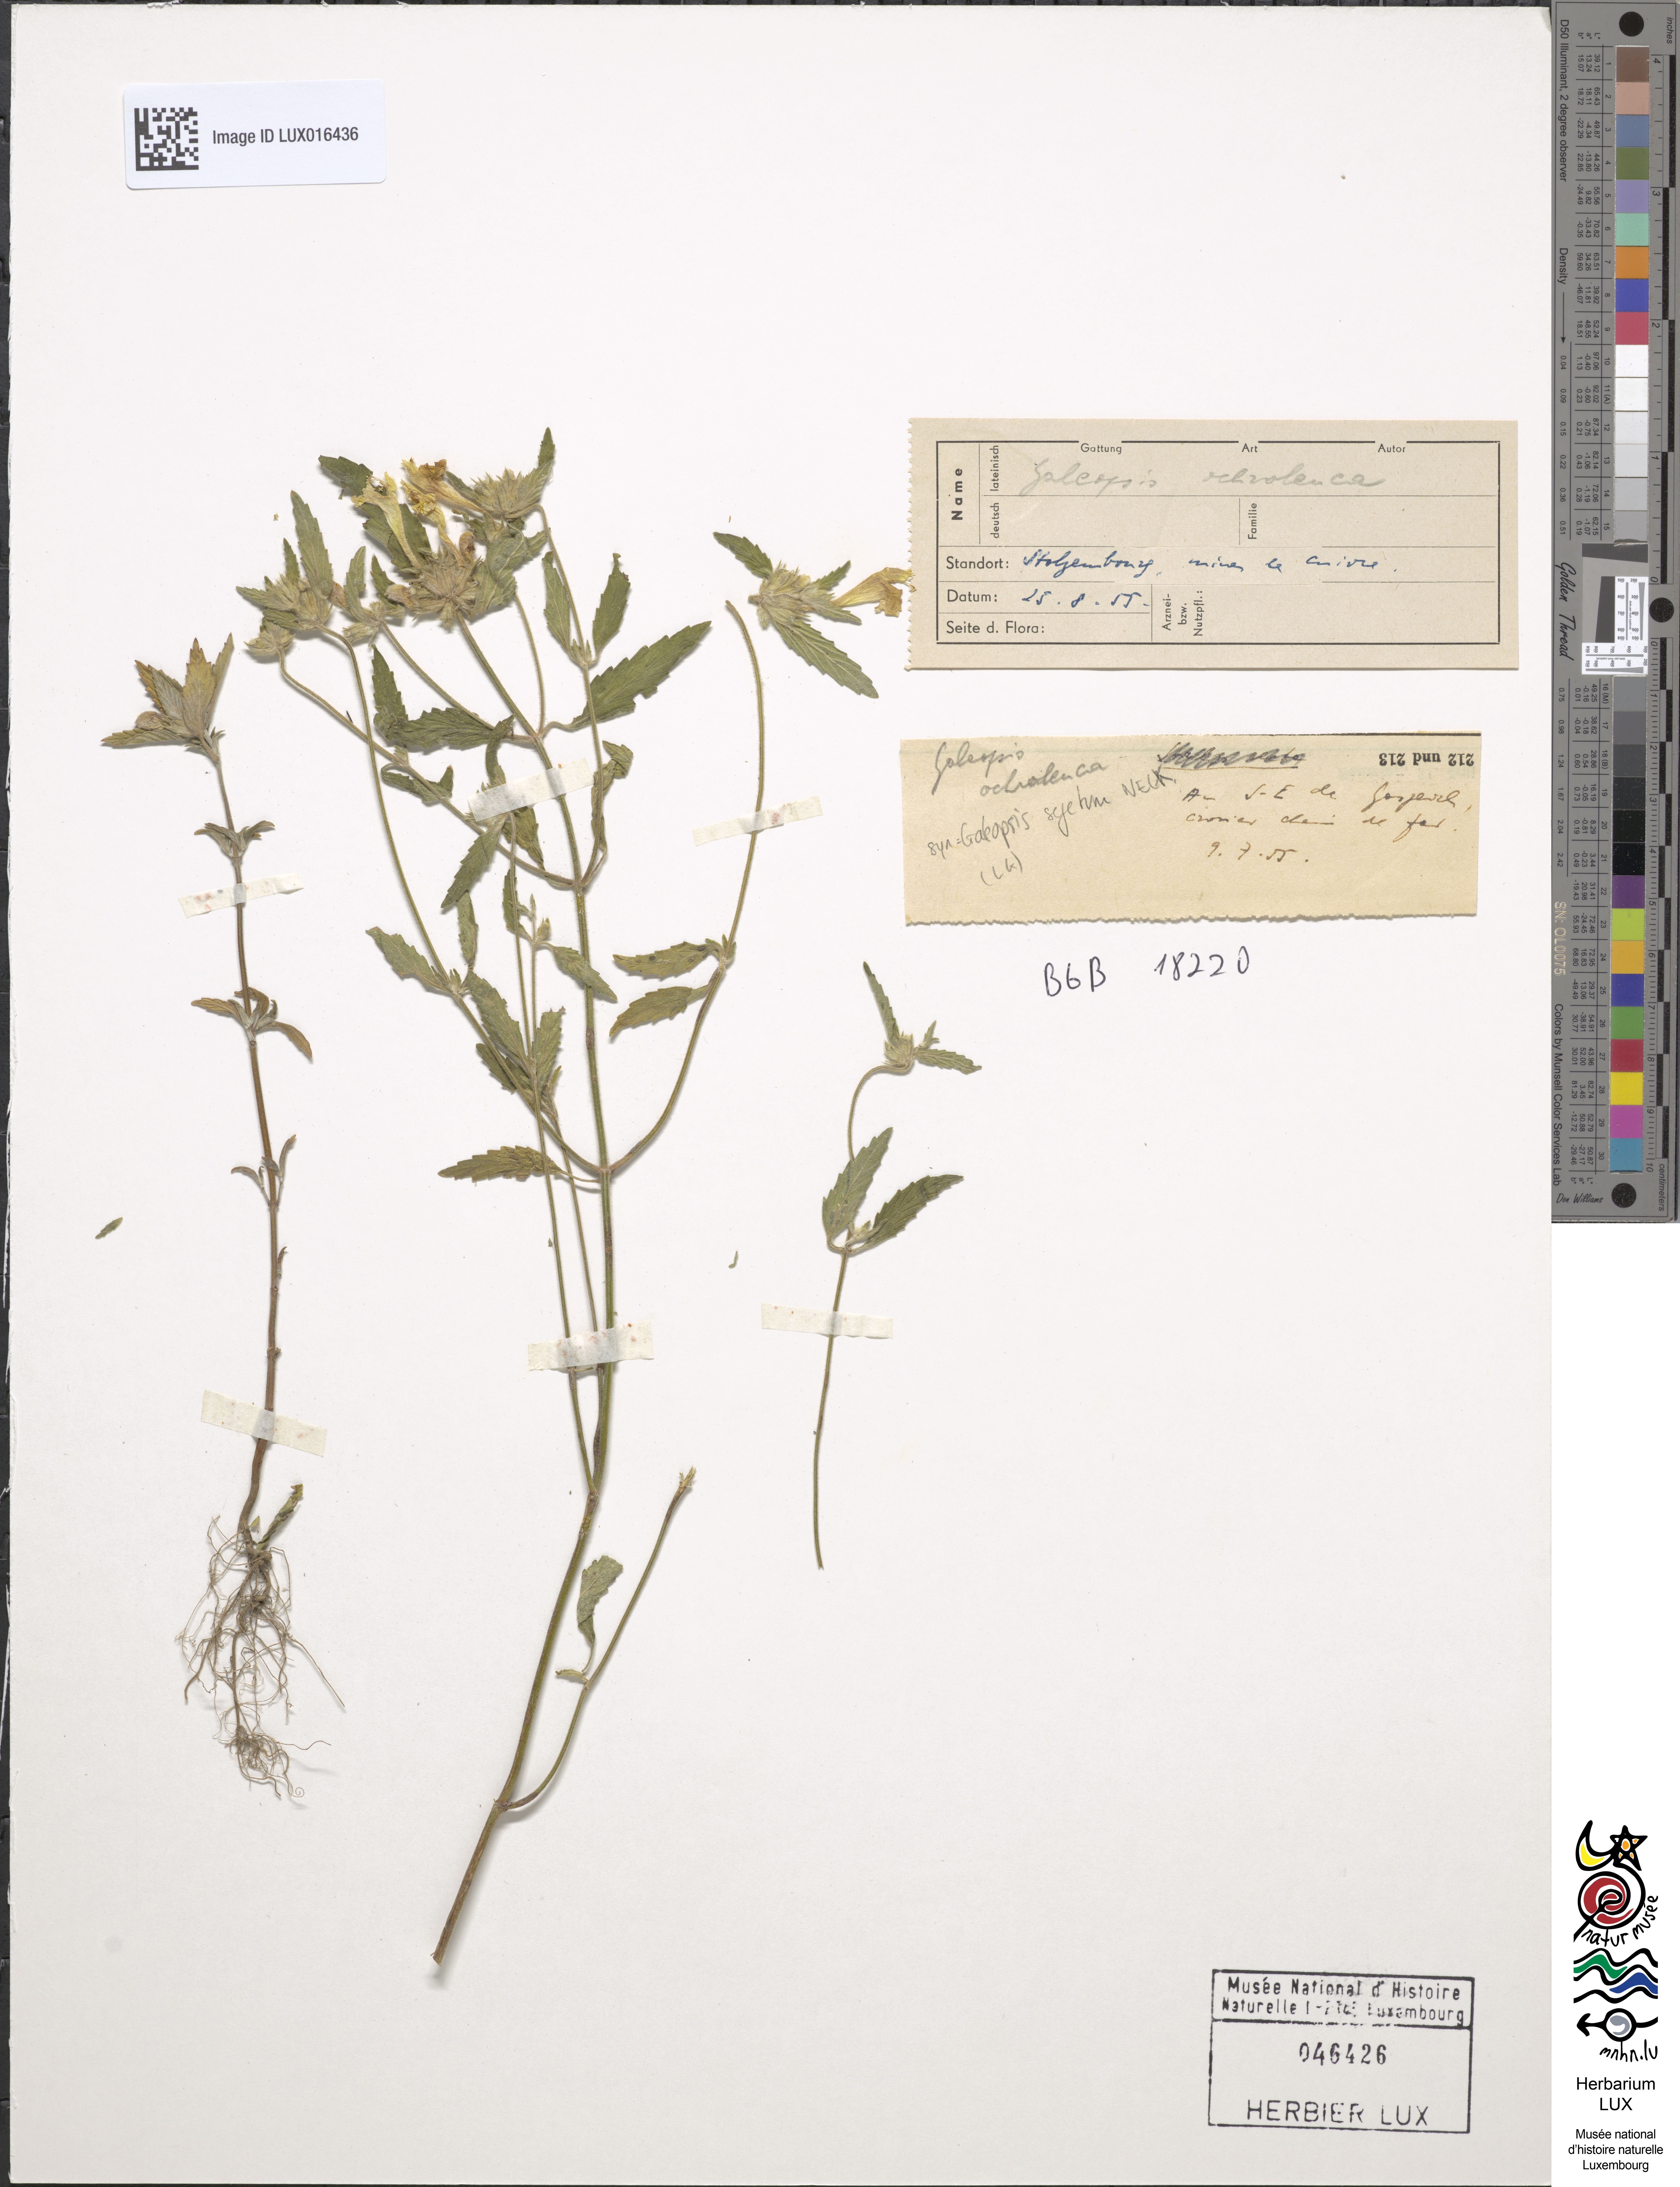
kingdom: Plantae
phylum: Tracheophyta
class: Magnoliopsida
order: Lamiales
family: Lamiaceae
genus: Galeopsis
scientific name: Galeopsis segetum
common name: Downy hemp-nettle
